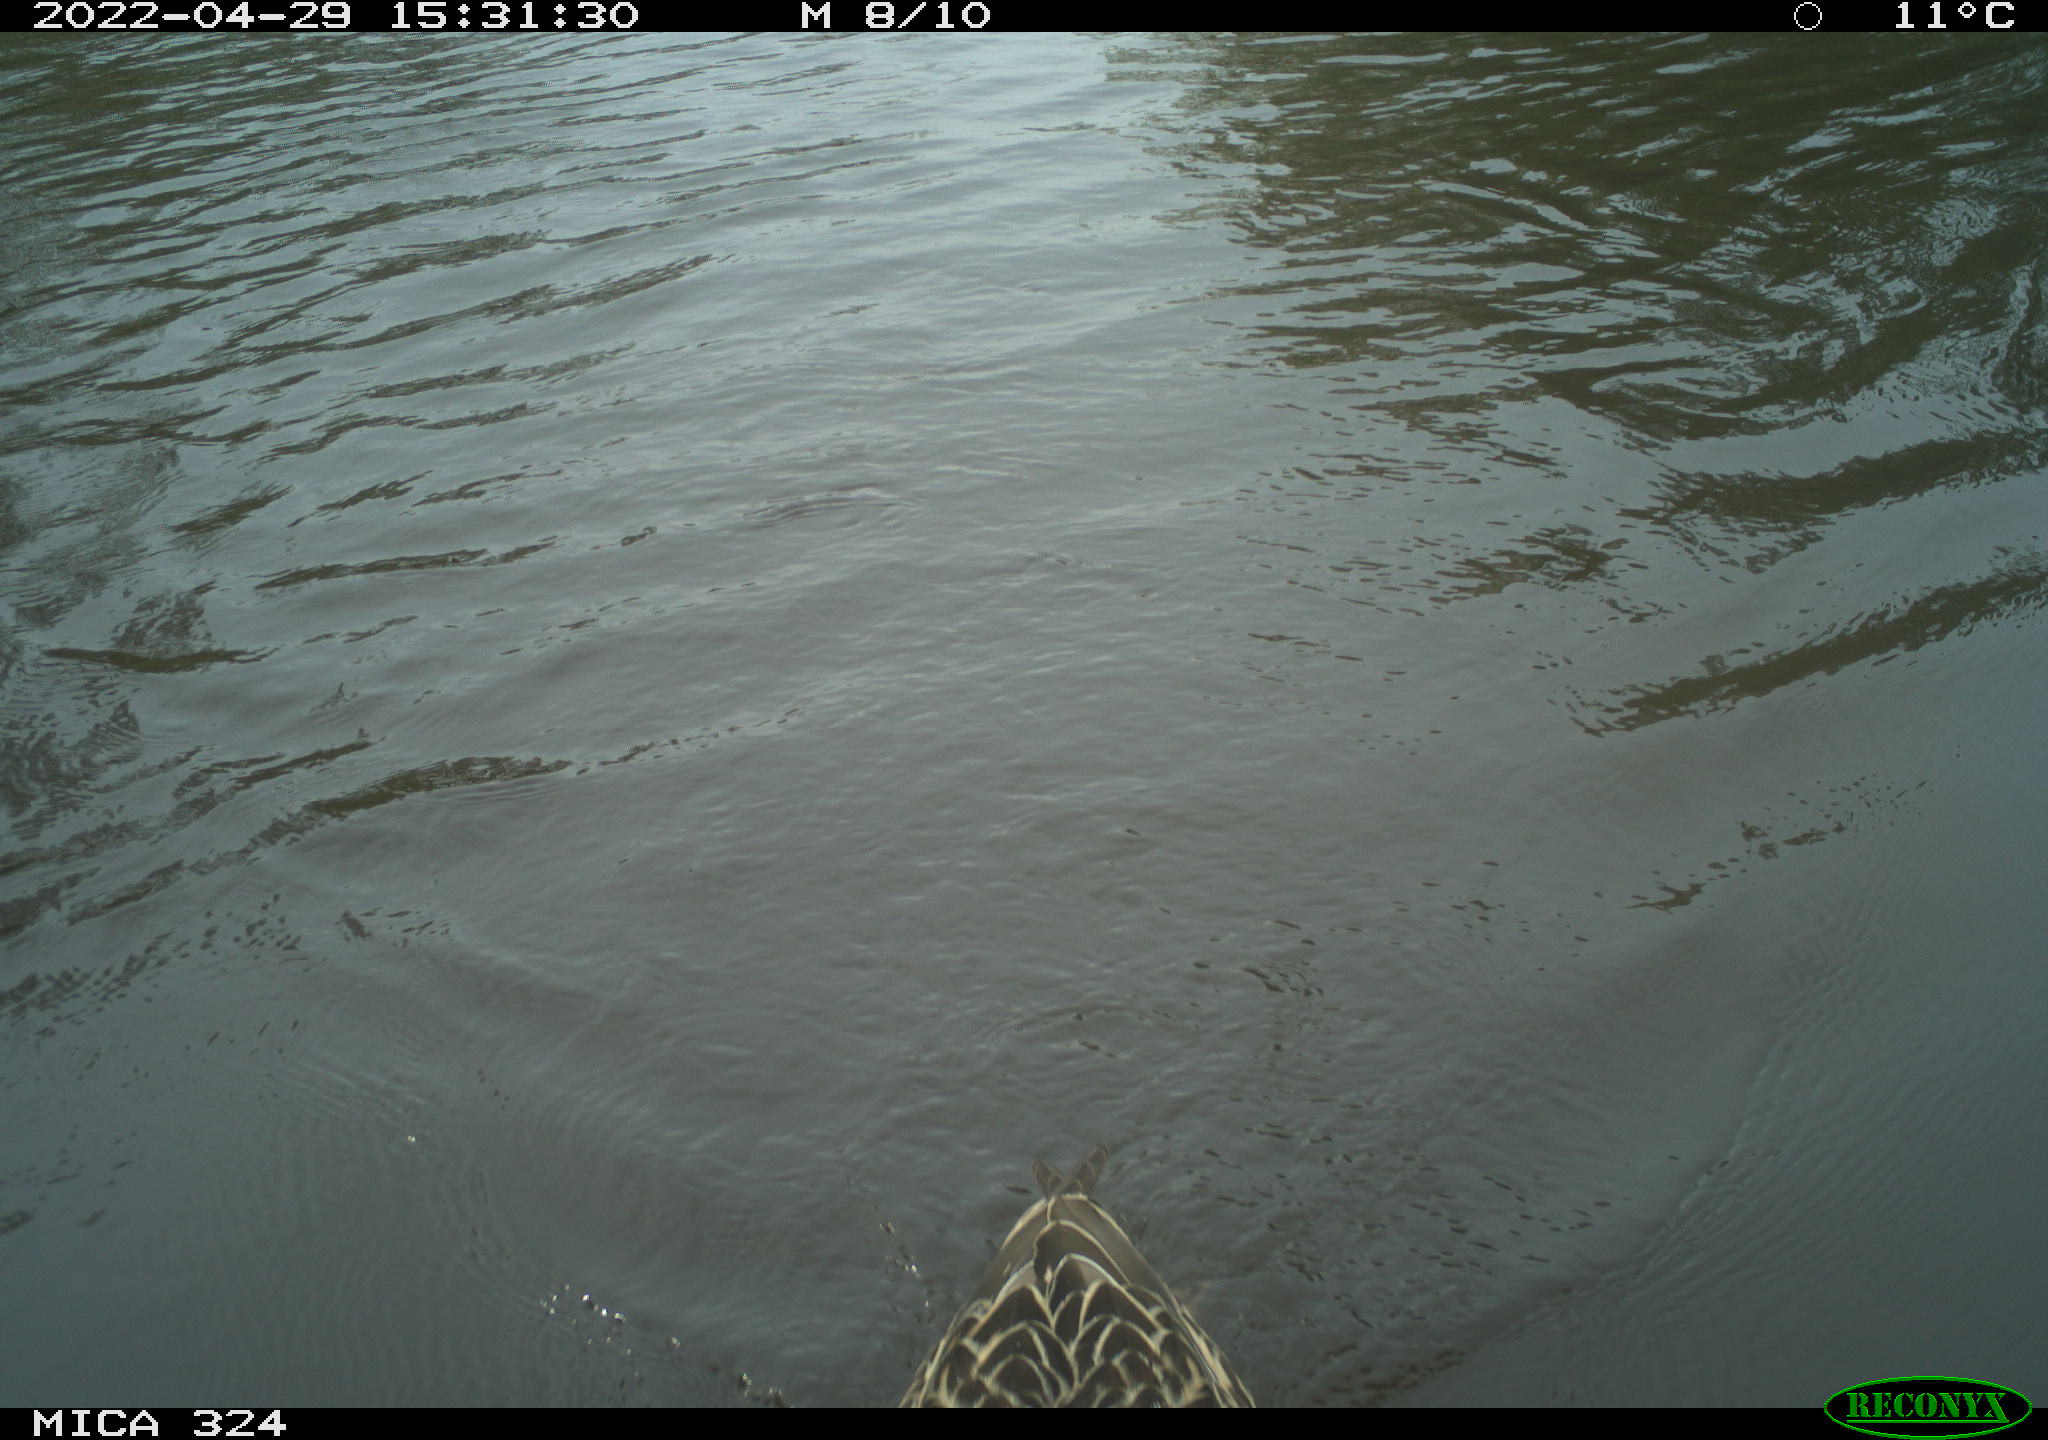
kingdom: Animalia
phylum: Chordata
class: Aves
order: Anseriformes
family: Anatidae
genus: Anas
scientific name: Anas platyrhynchos
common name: Mallard
